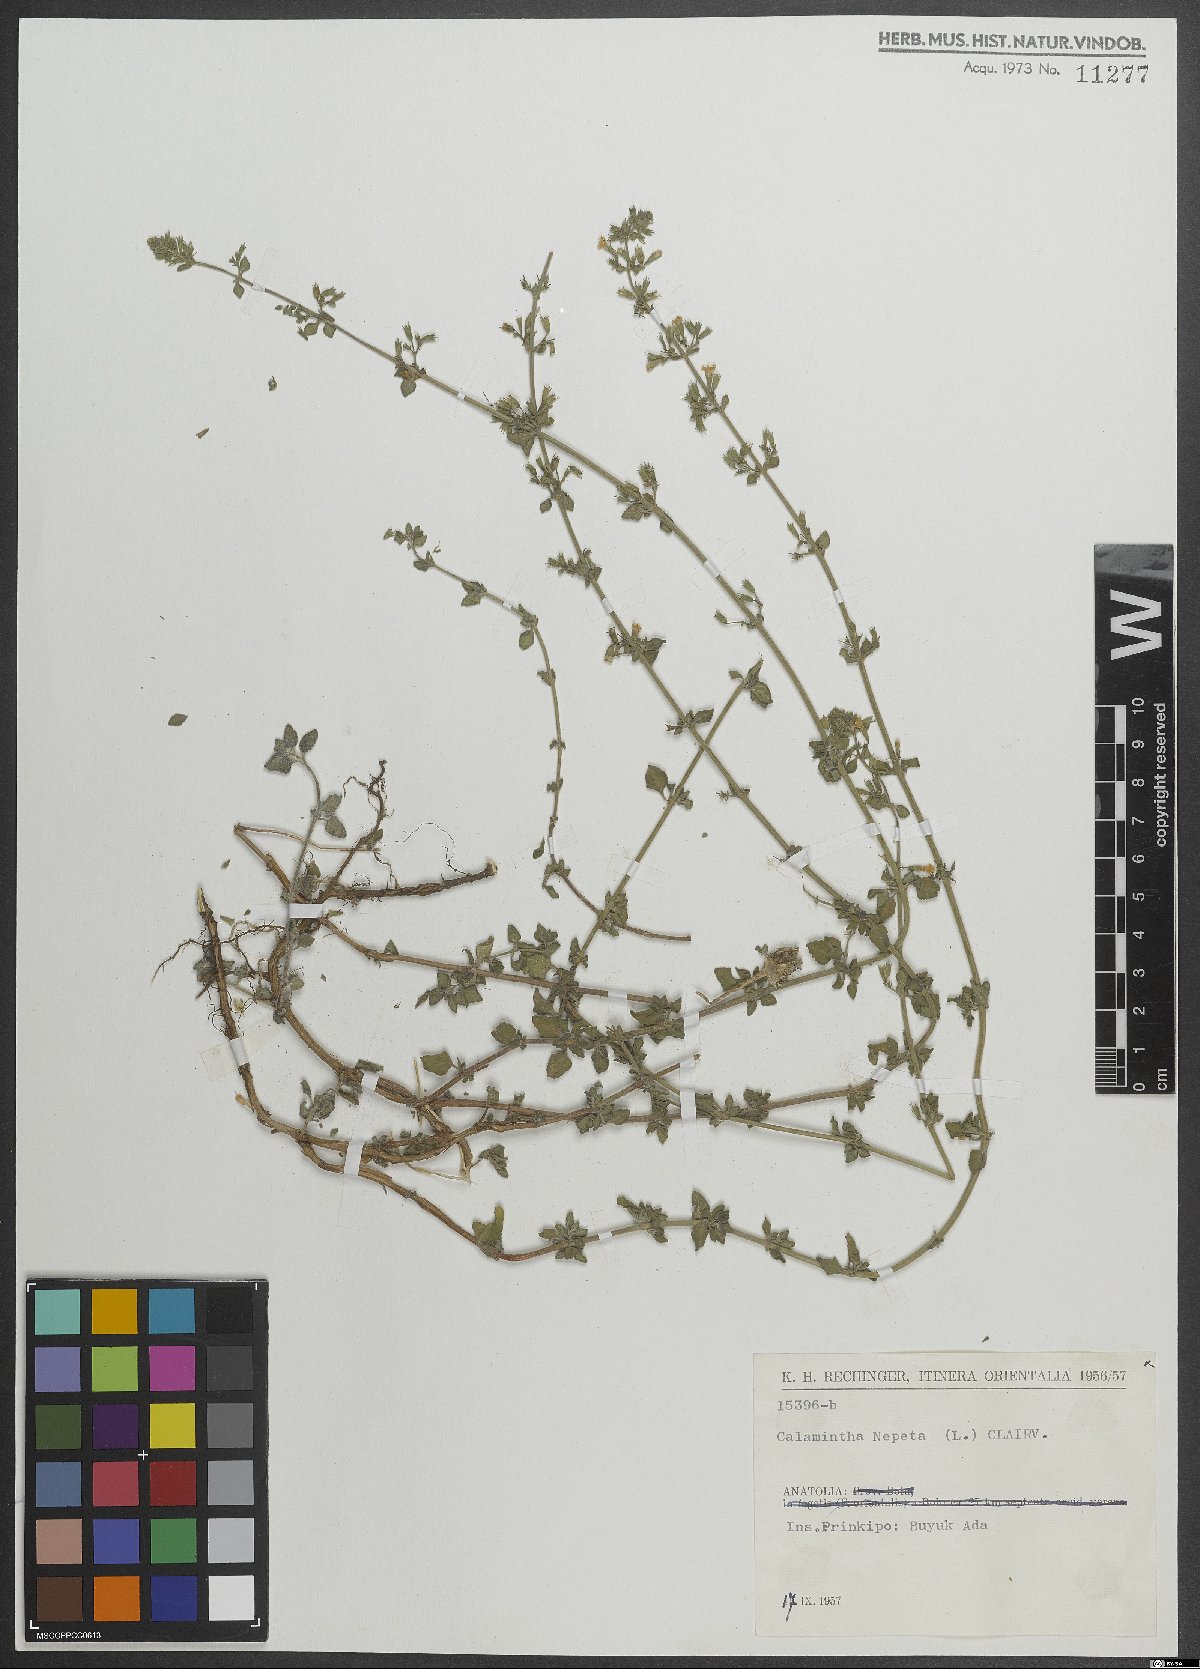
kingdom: Plantae
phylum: Tracheophyta
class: Magnoliopsida
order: Lamiales
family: Lamiaceae
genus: Clinopodium
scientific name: Clinopodium nepeta
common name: Lesser calamint
